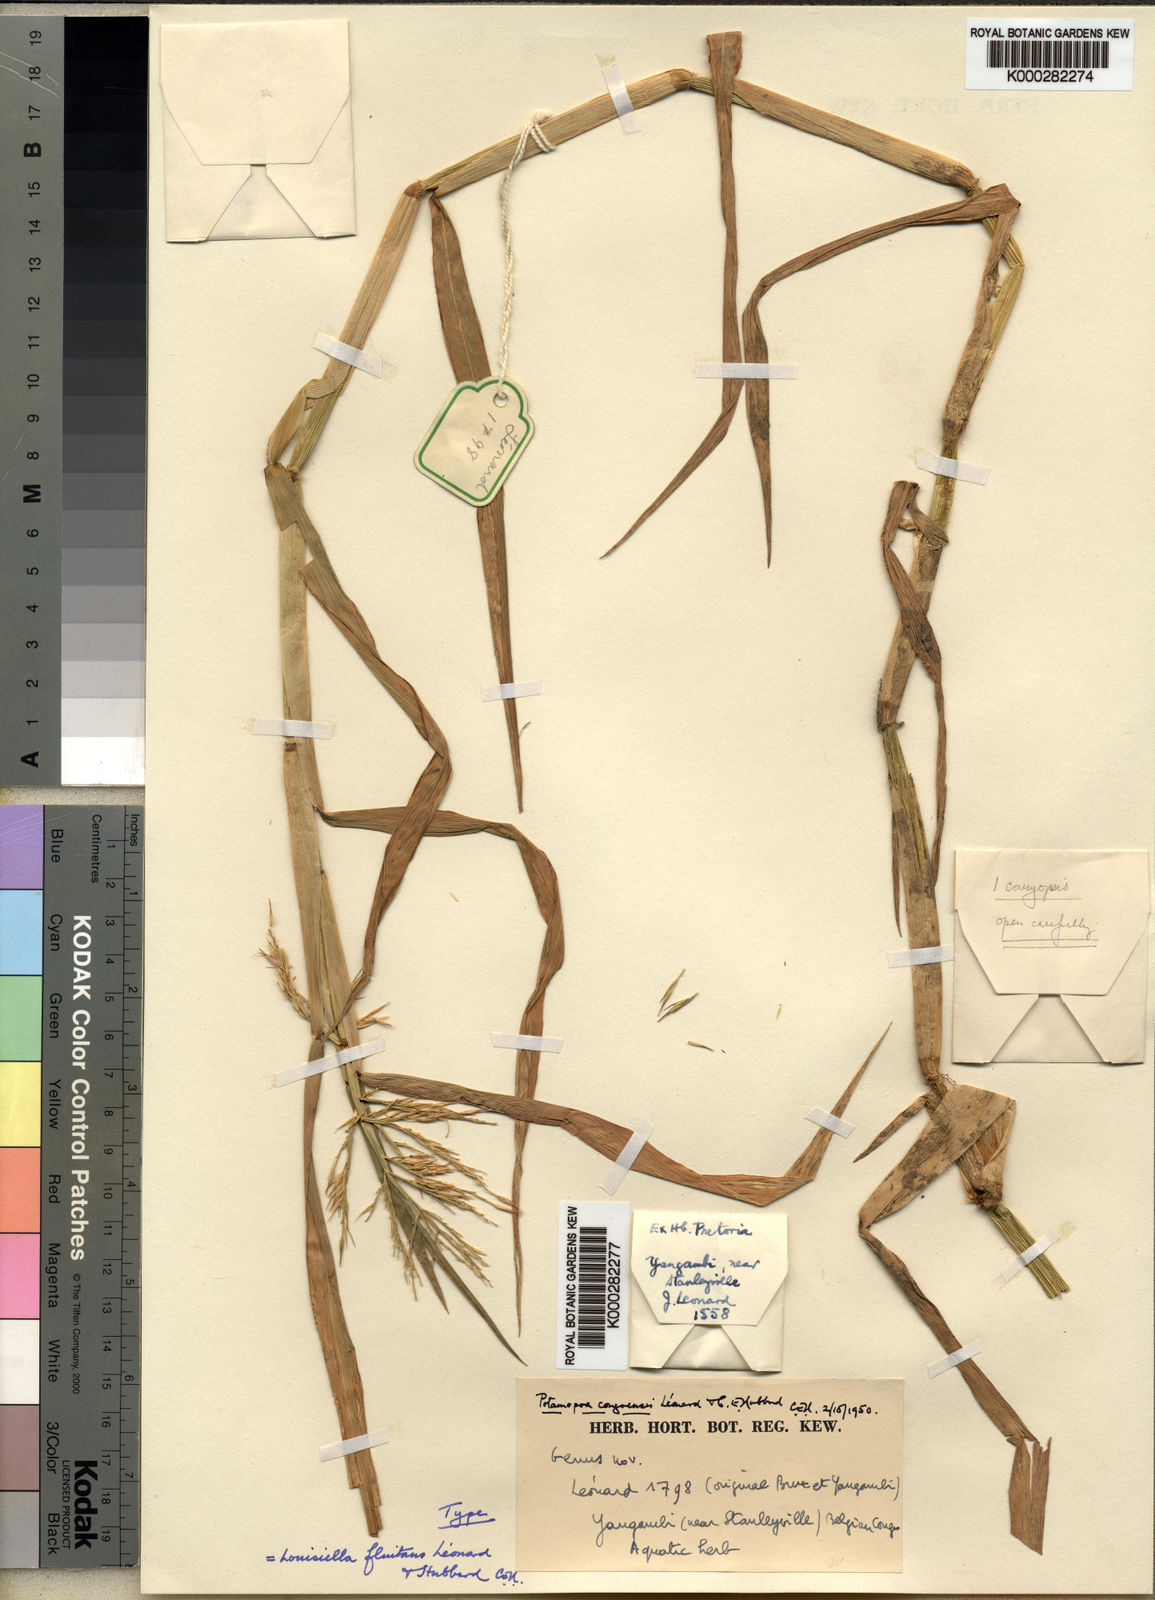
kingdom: Plantae
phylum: Tracheophyta
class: Liliopsida
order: Poales
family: Poaceae
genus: Louisiella
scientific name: Louisiella
